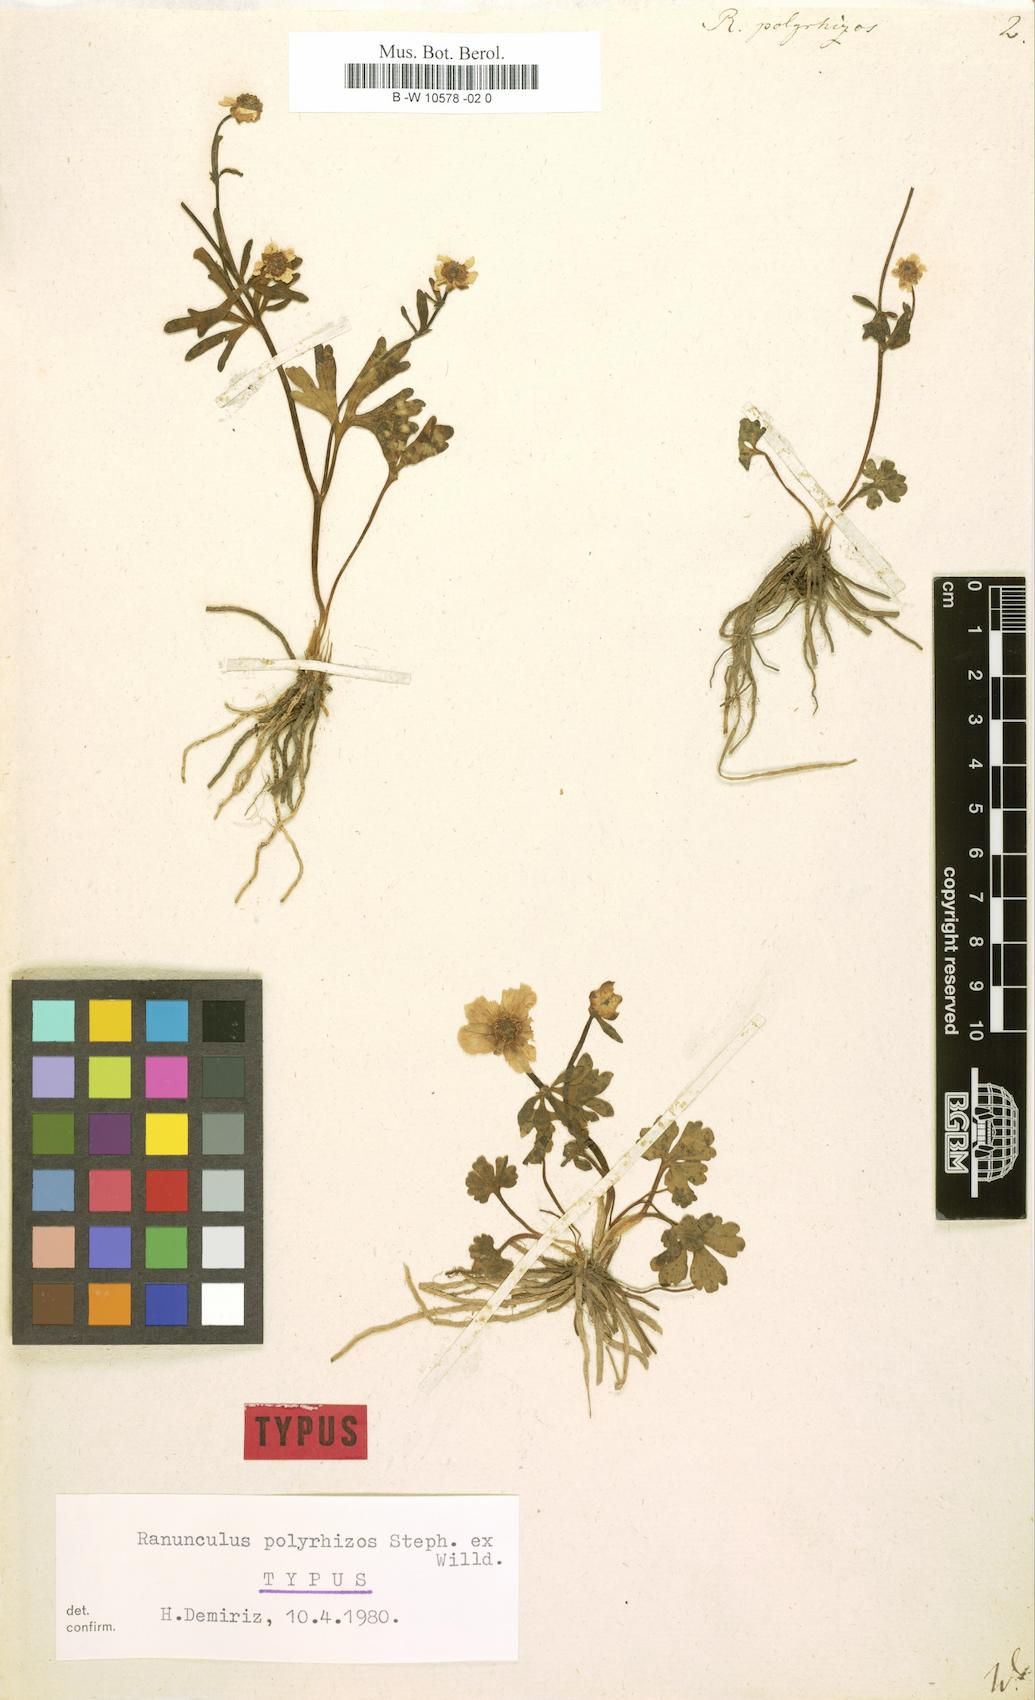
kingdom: Plantae
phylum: Tracheophyta
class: Magnoliopsida
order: Ranunculales
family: Ranunculaceae
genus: Ranunculus
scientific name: Ranunculus polyrhizos
